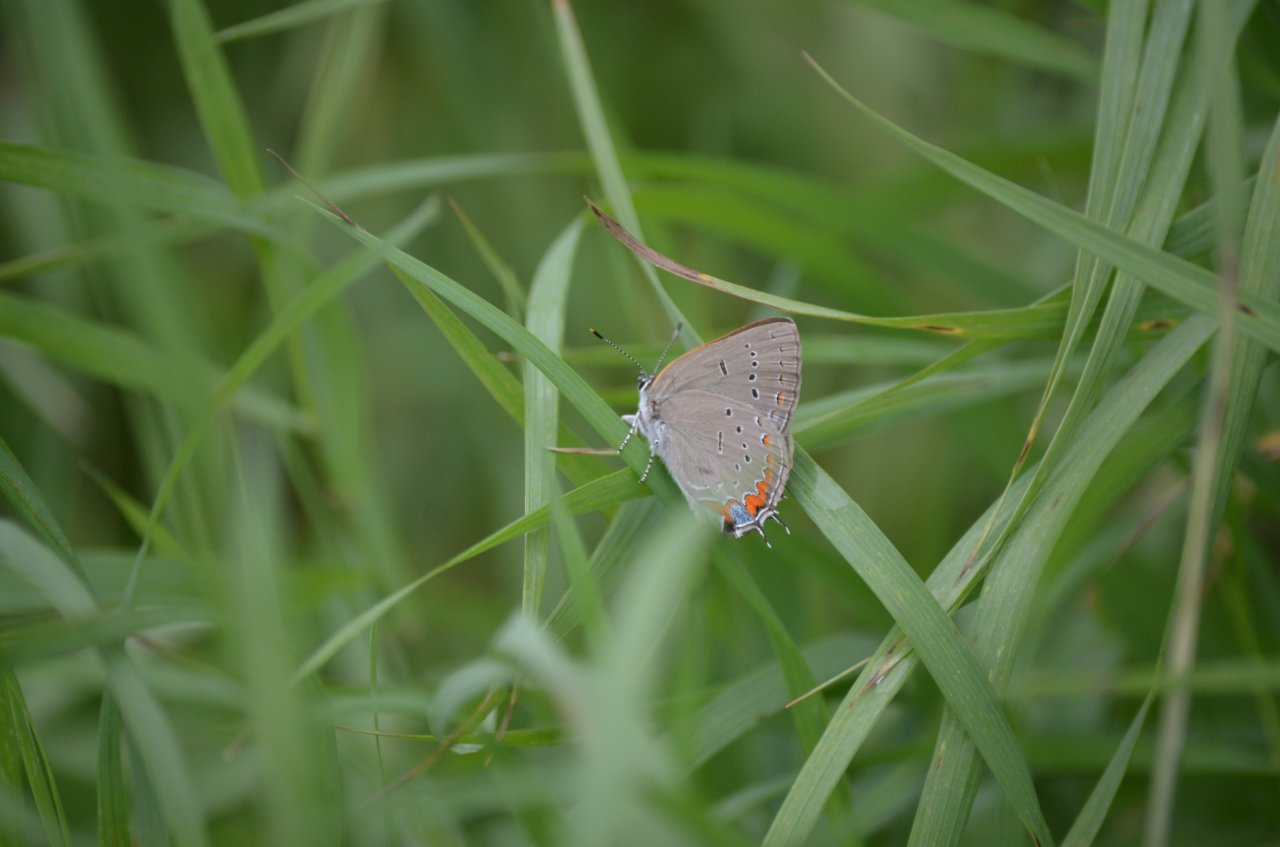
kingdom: Animalia
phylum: Arthropoda
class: Insecta
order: Lepidoptera
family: Lycaenidae
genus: Strymon
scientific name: Strymon acadica
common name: Acadian Hairstreak
